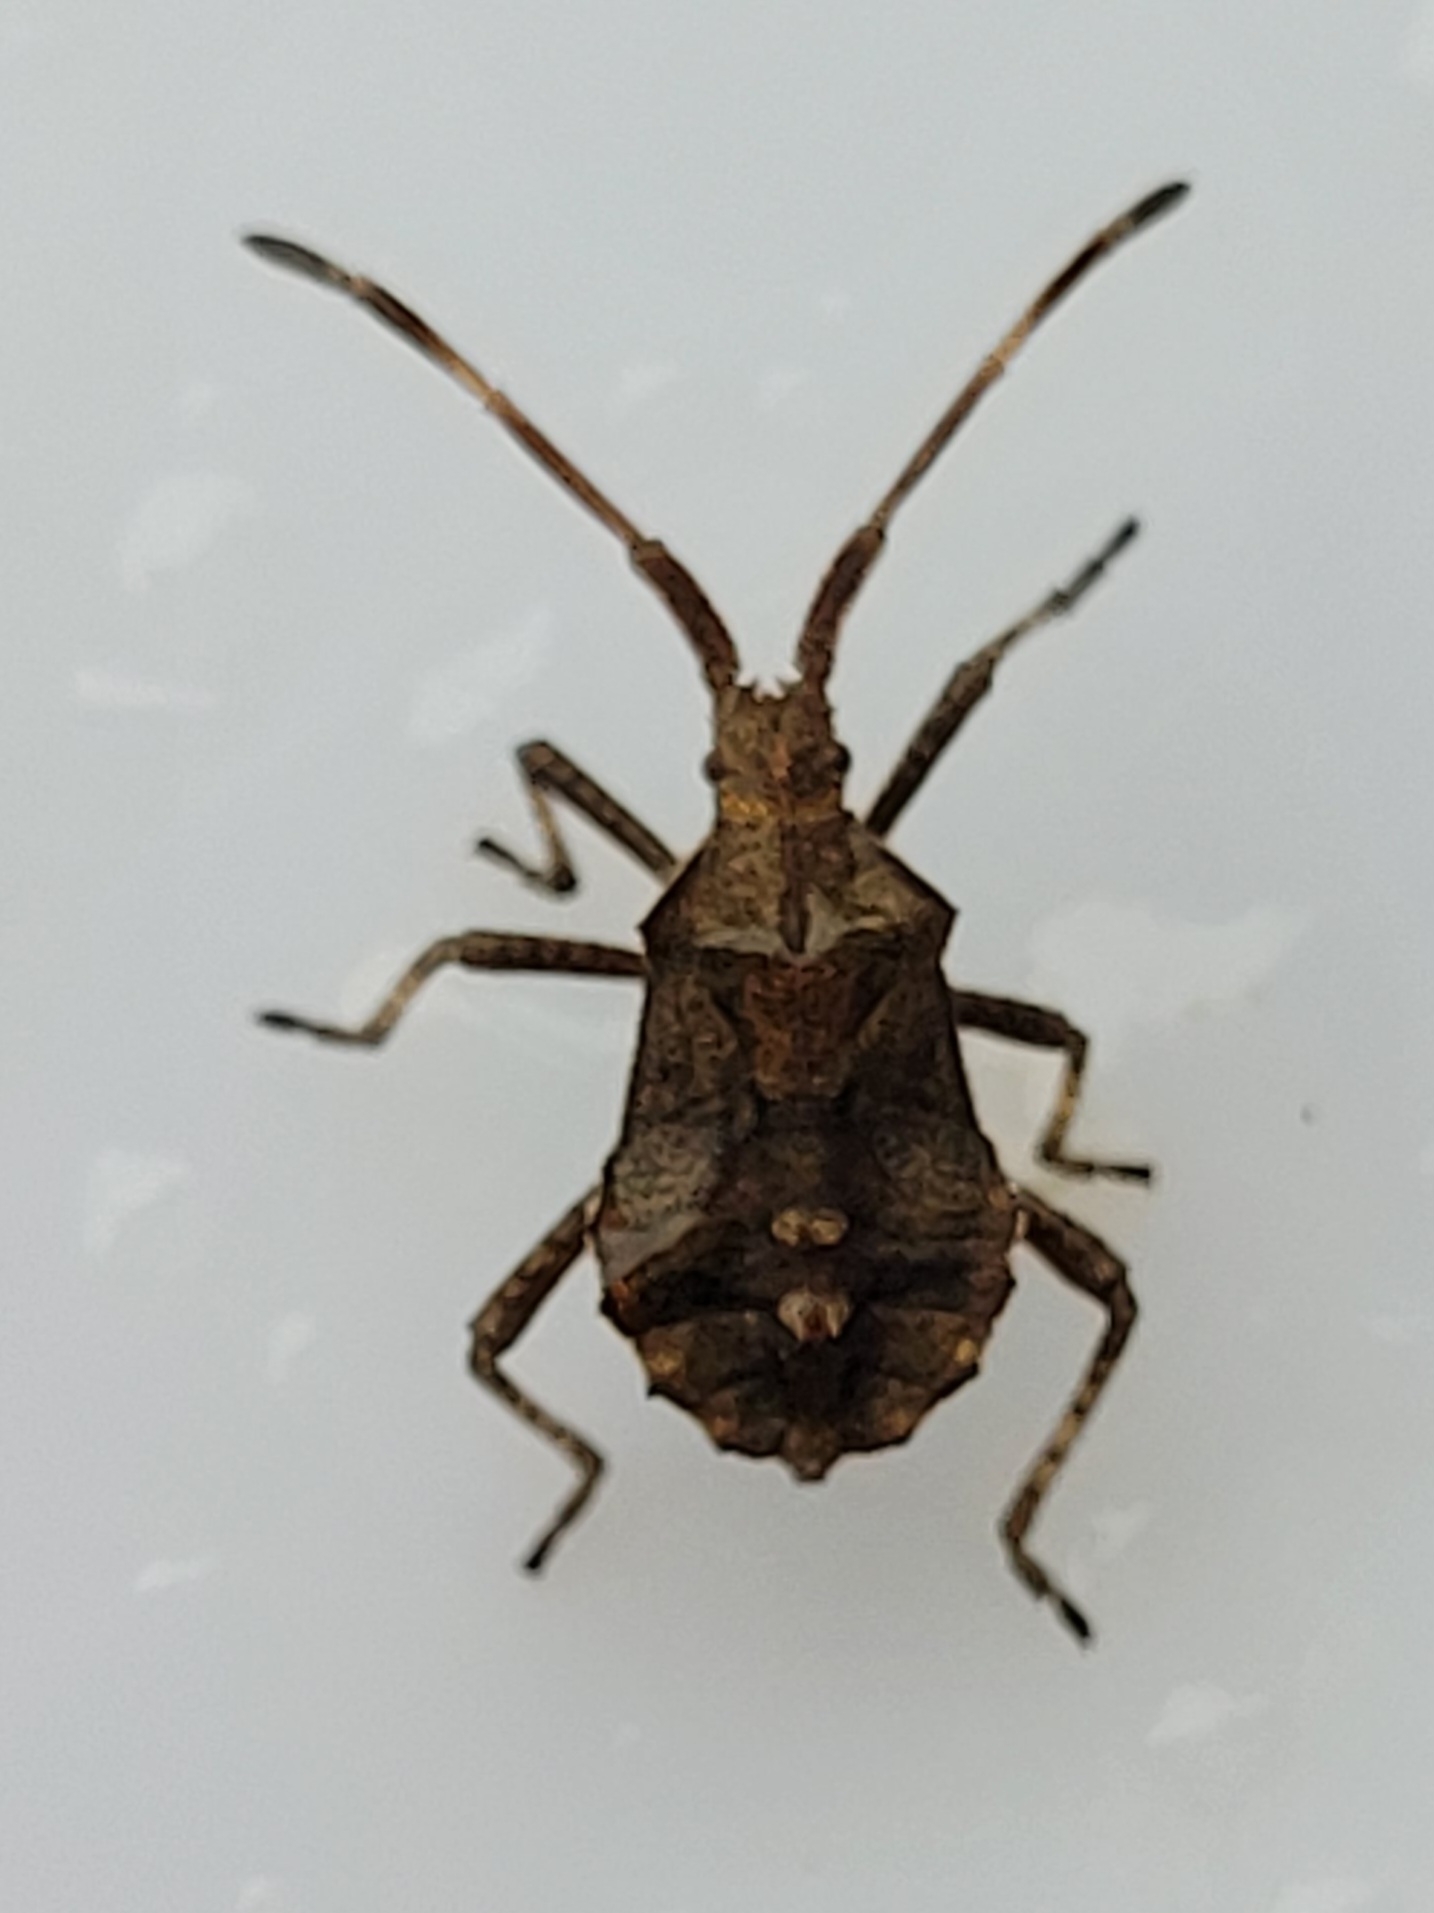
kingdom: Animalia
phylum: Arthropoda
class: Insecta
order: Hemiptera
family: Coreidae
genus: Coreus
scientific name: Coreus marginatus
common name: Skræppetæge
